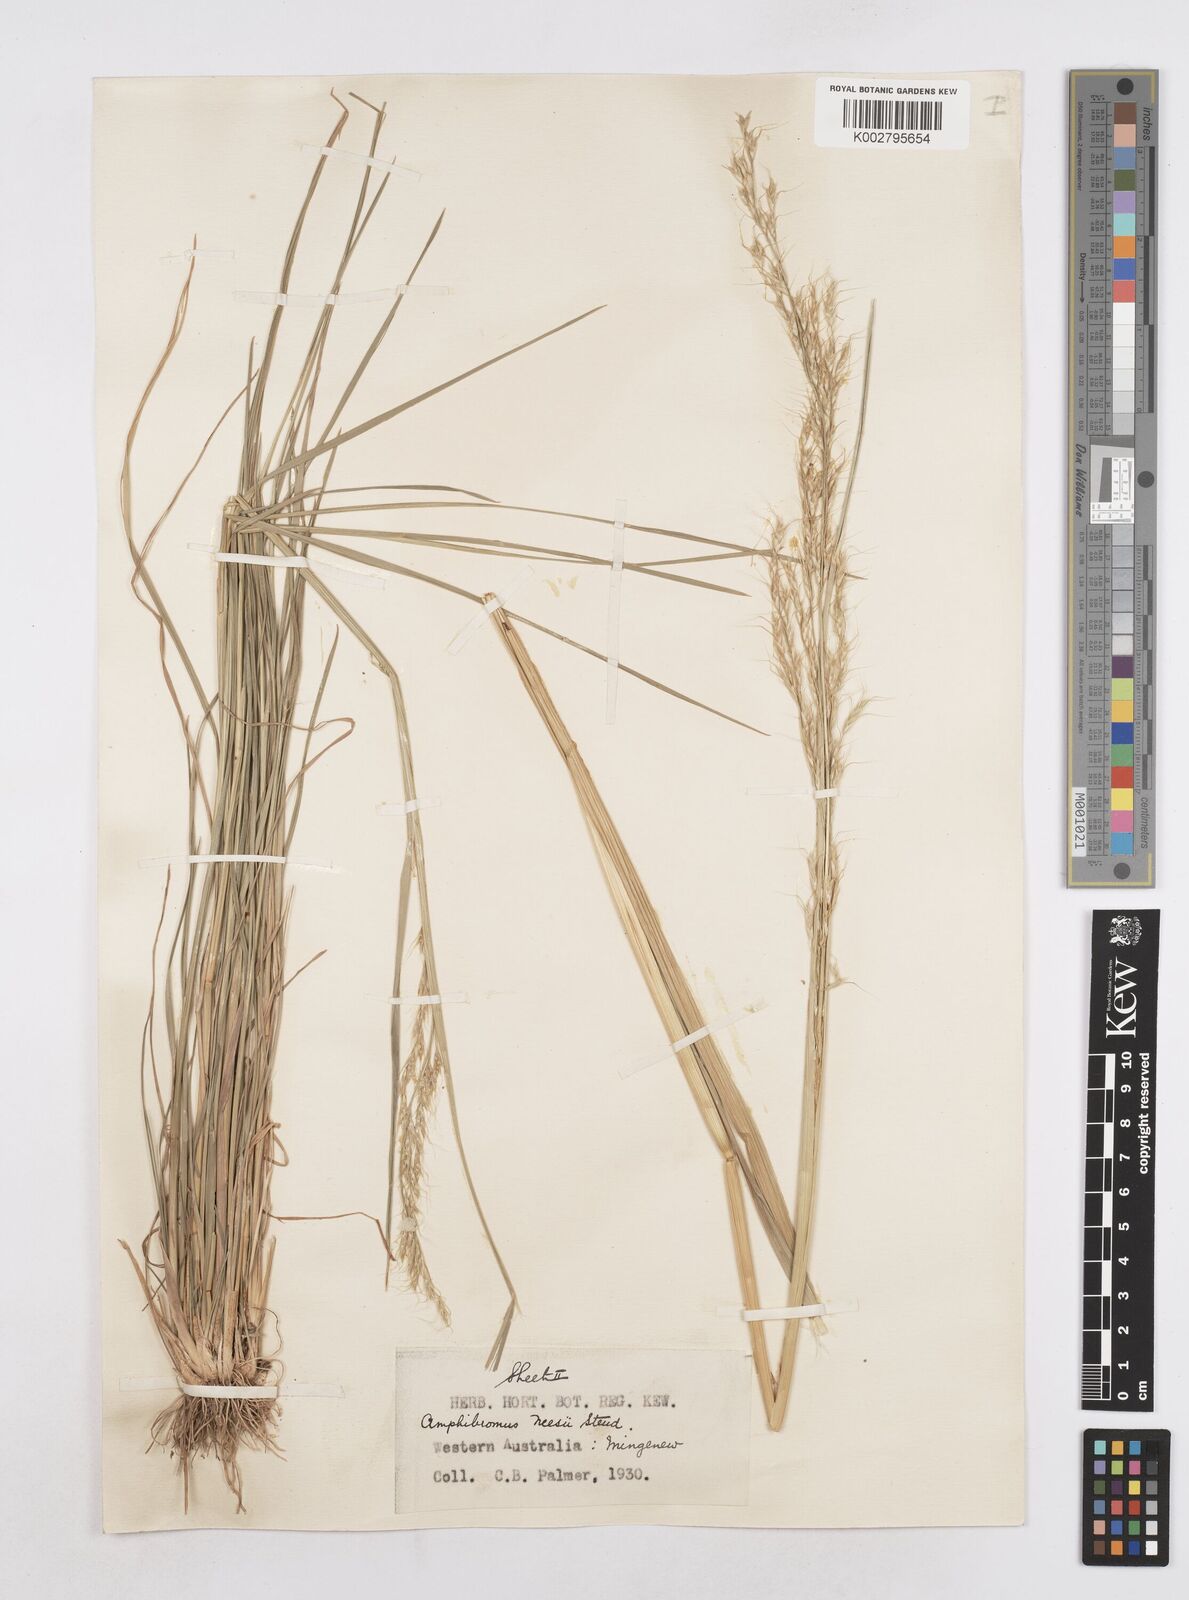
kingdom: Plantae
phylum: Tracheophyta
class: Liliopsida
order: Poales
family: Poaceae
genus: Amphibromus
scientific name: Amphibromus neesii
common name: Australian wallaby grass
